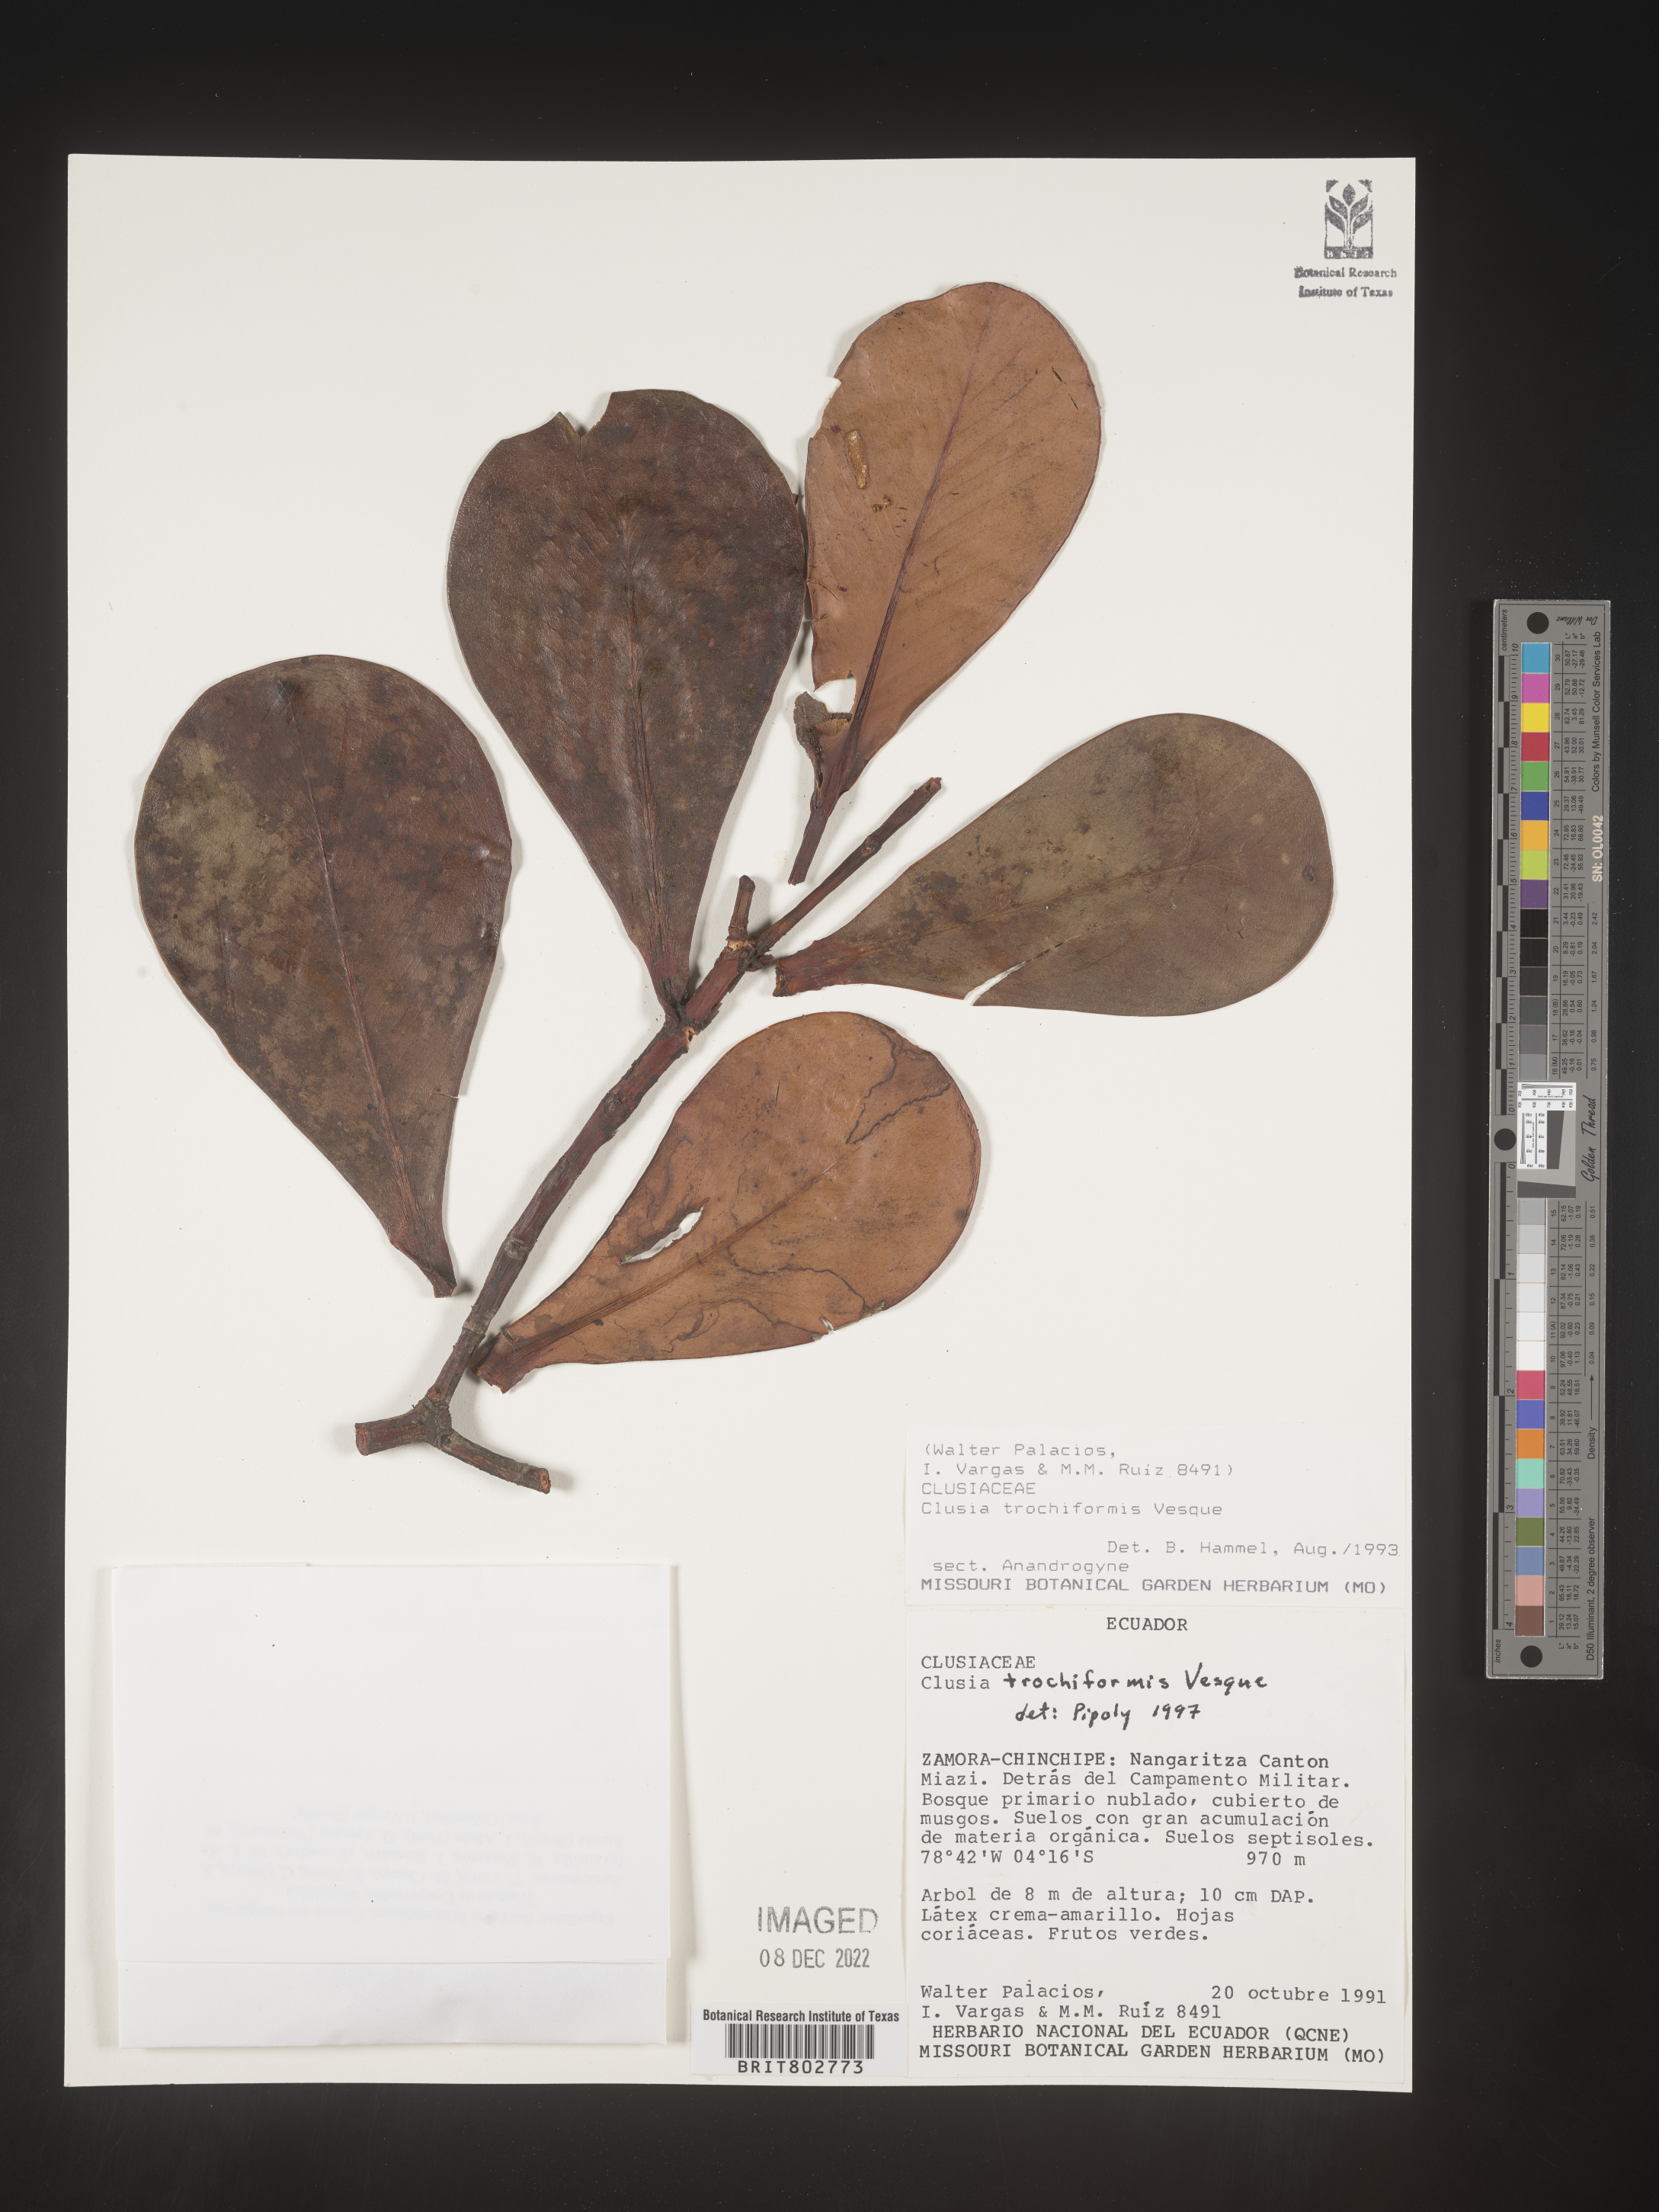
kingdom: Plantae
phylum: Tracheophyta
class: Magnoliopsida
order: Malpighiales
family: Clusiaceae
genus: Clusia
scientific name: Clusia trochiformis
